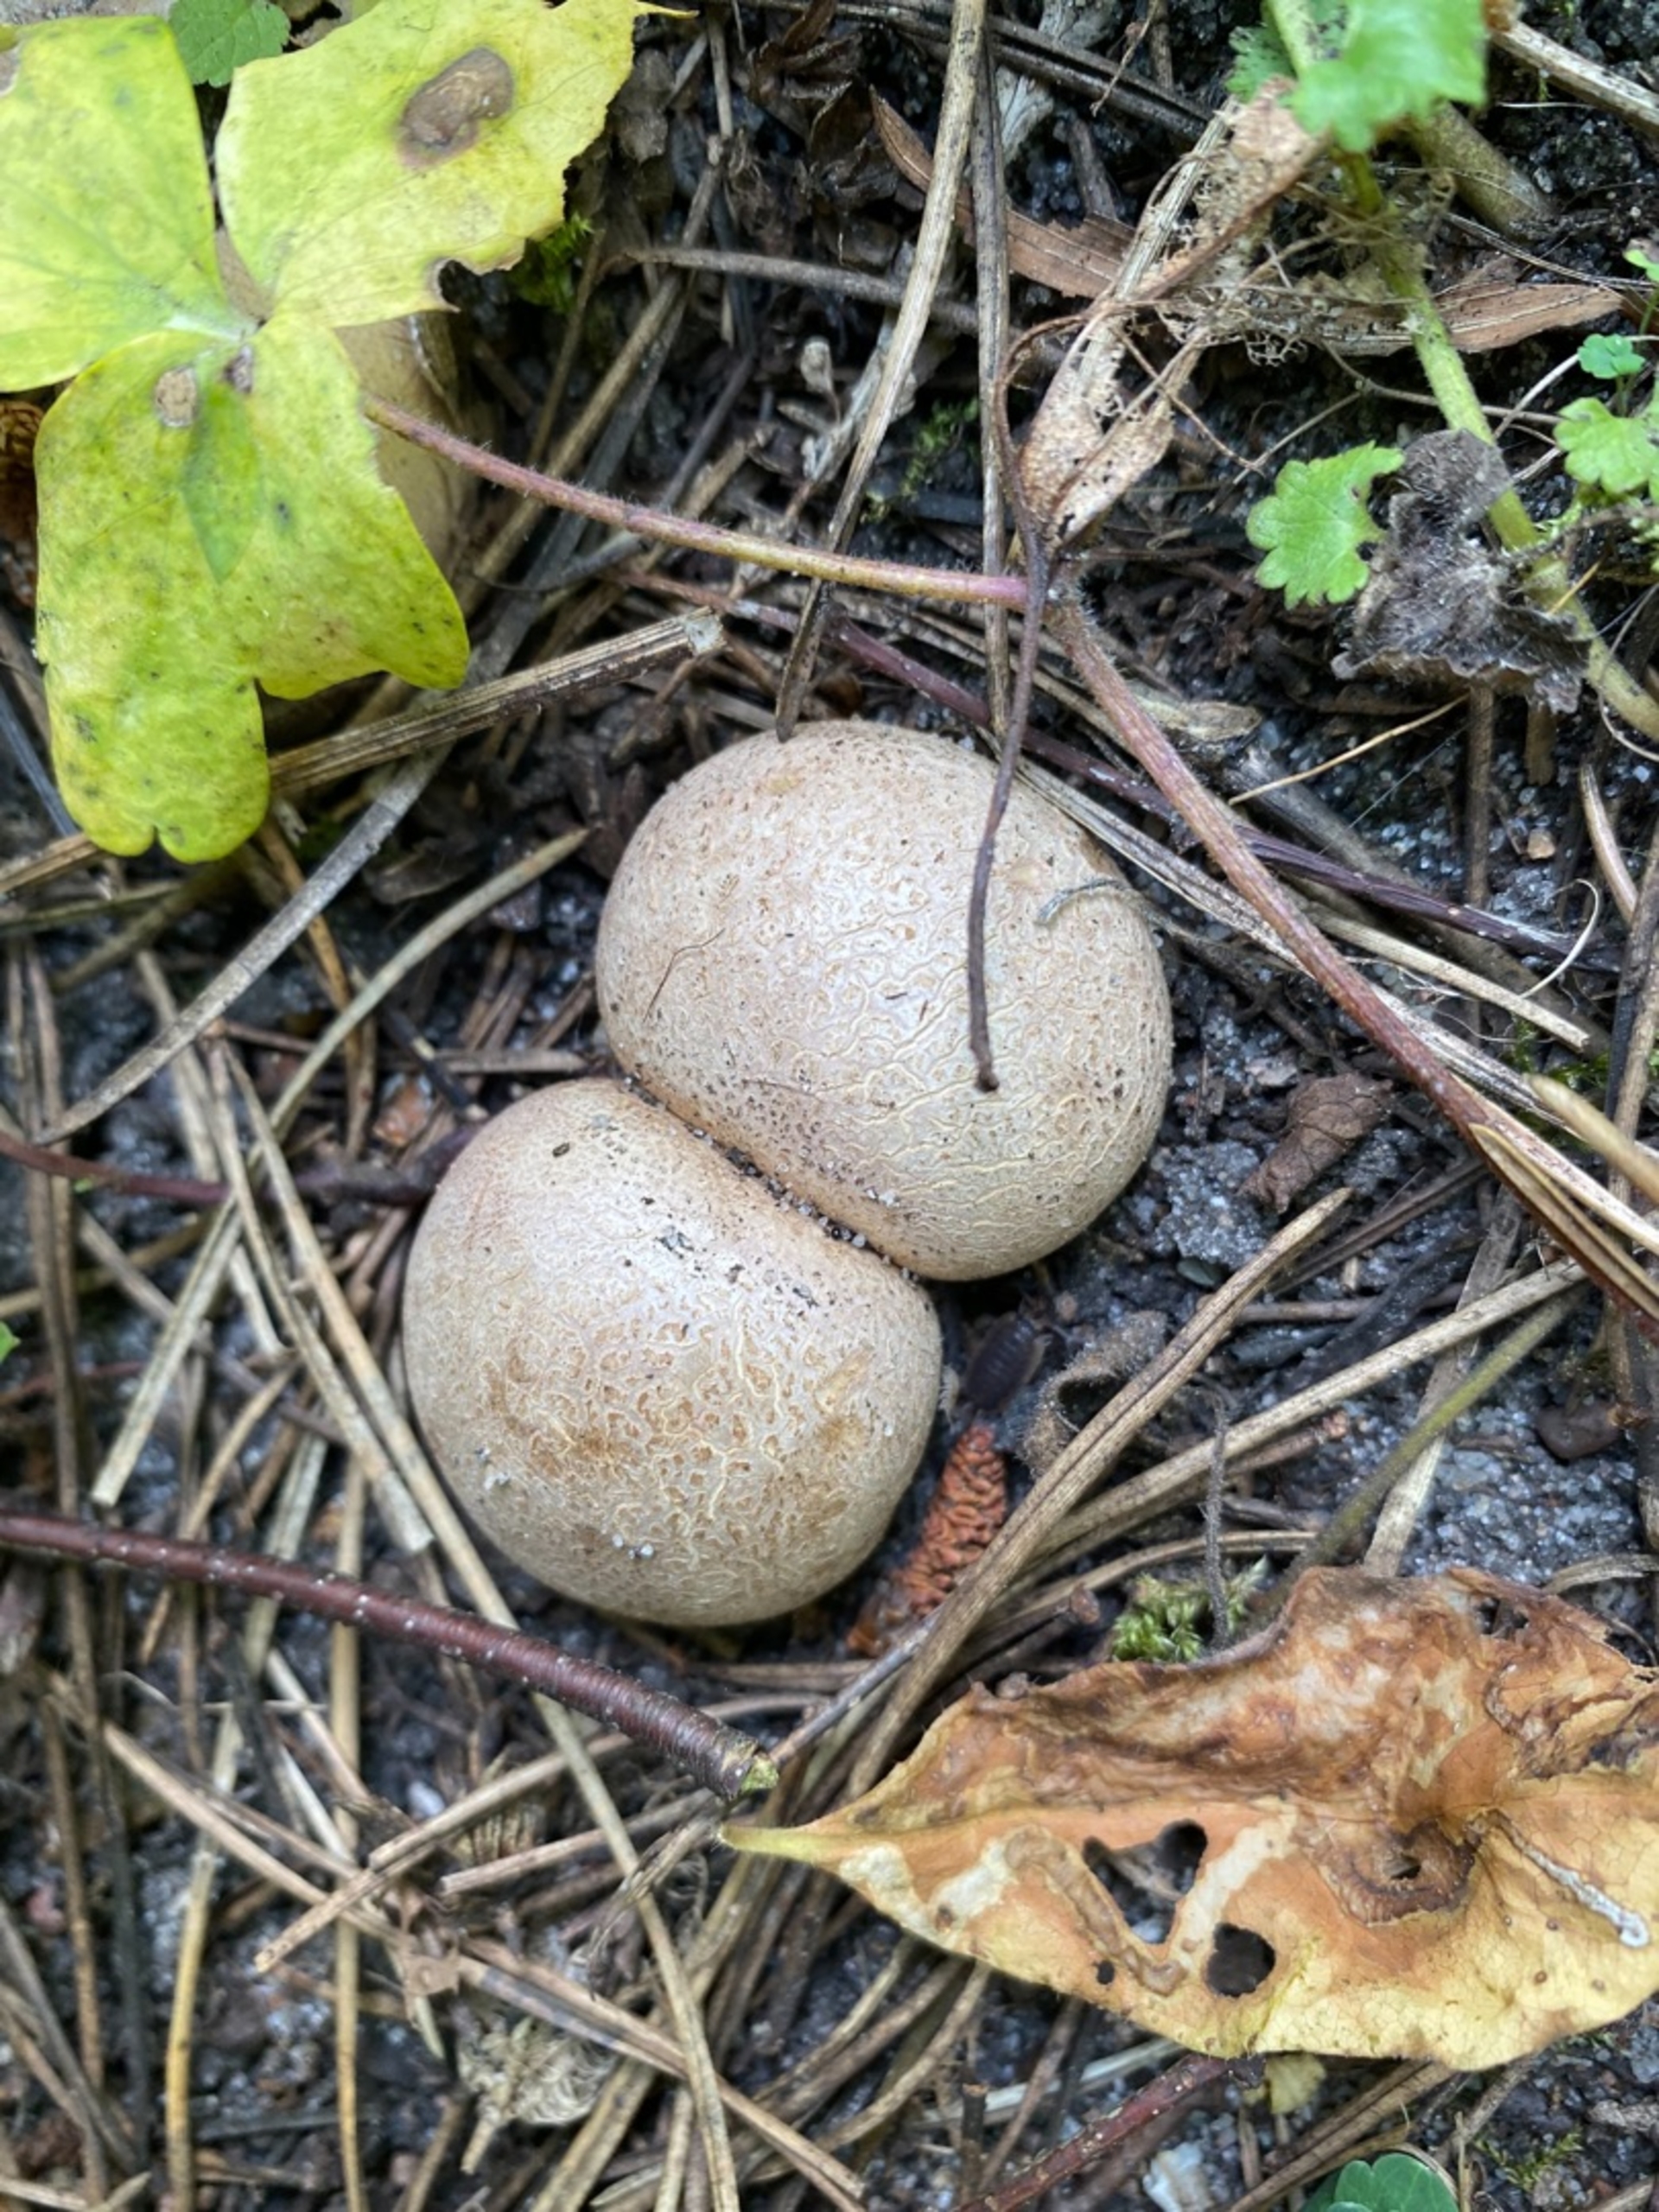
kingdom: Fungi
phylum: Basidiomycota
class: Agaricomycetes
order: Boletales
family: Sclerodermataceae
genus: Scleroderma
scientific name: Scleroderma citrinum
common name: Almindelig bruskbold
